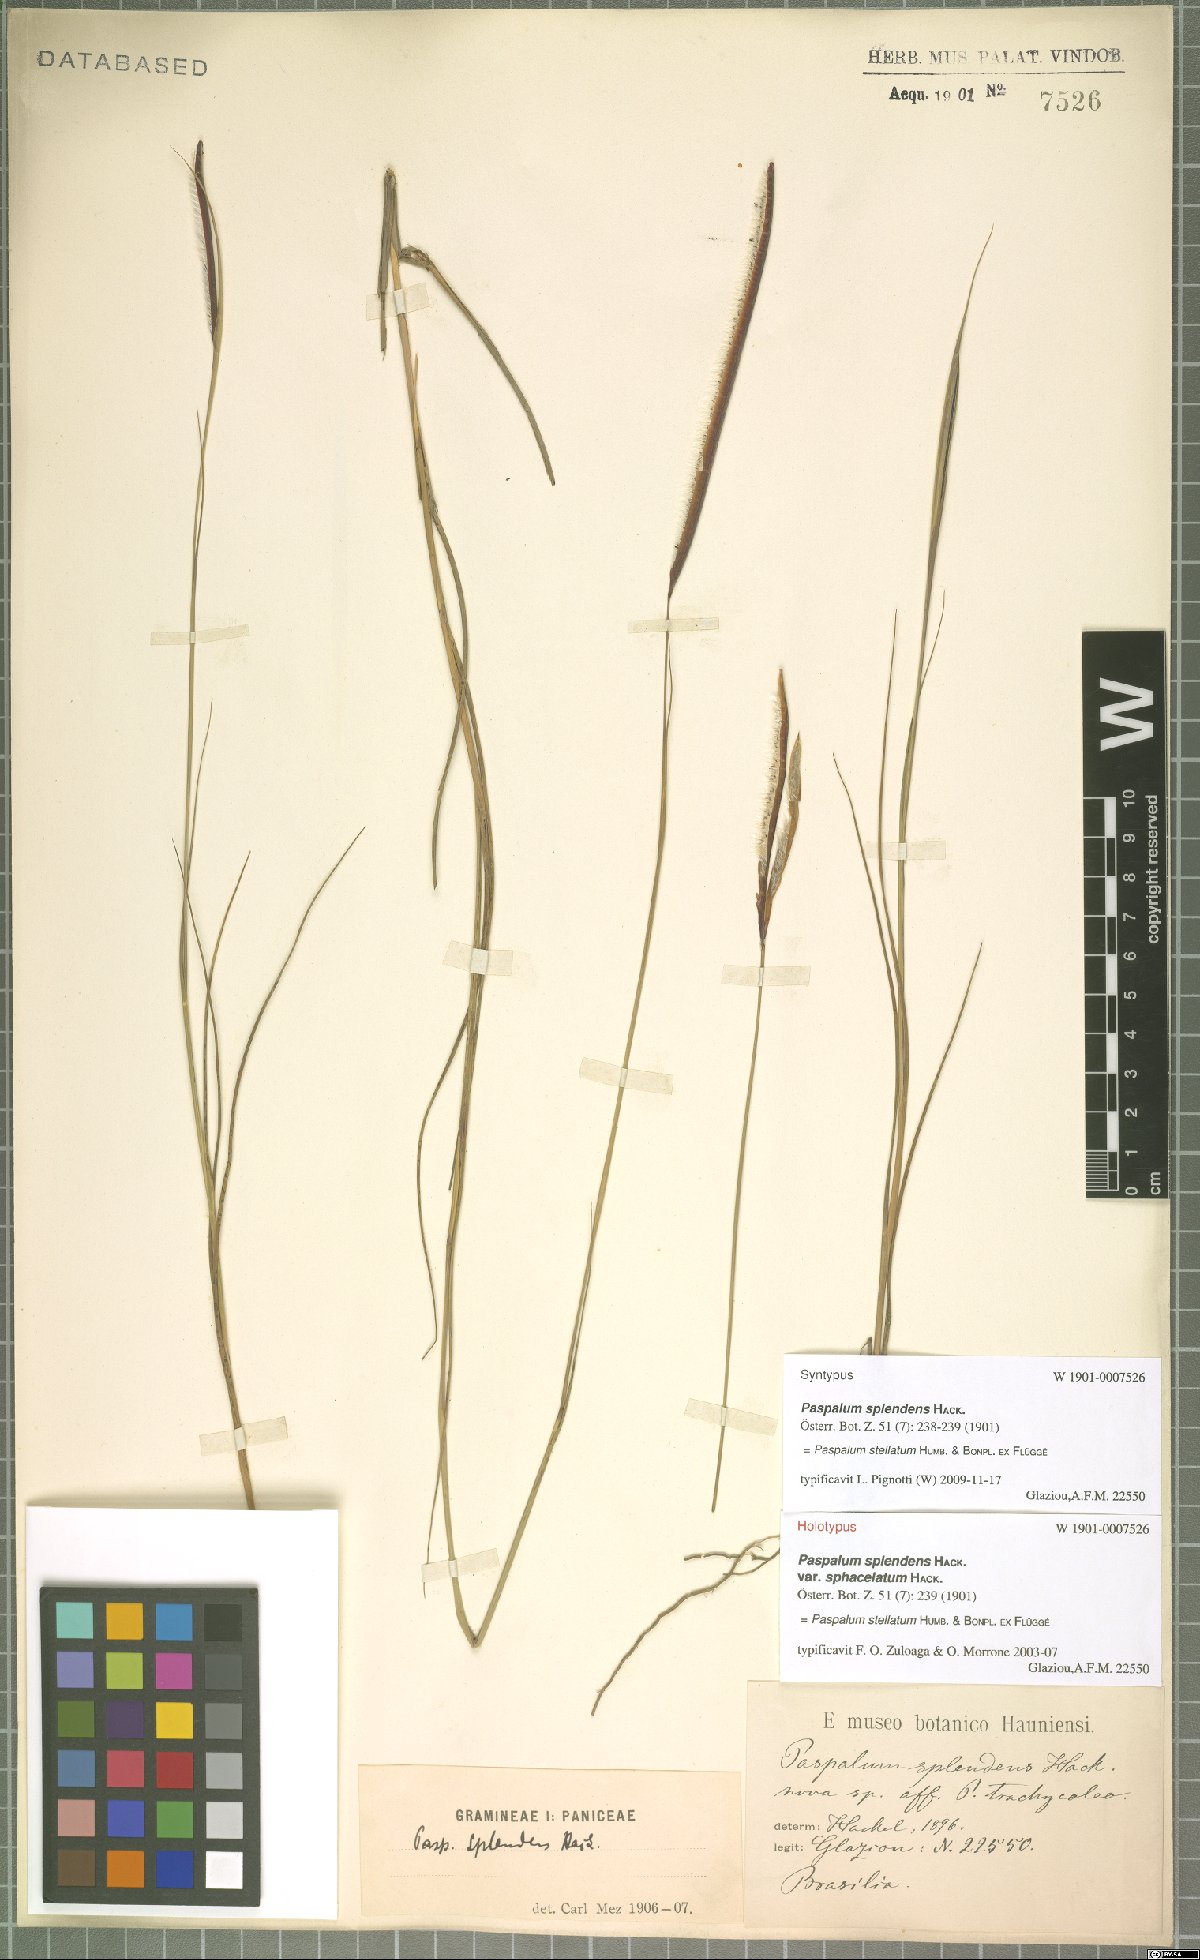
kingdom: Plantae
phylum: Tracheophyta
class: Liliopsida
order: Poales
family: Poaceae
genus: Paspalum
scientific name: Paspalum stellatum
